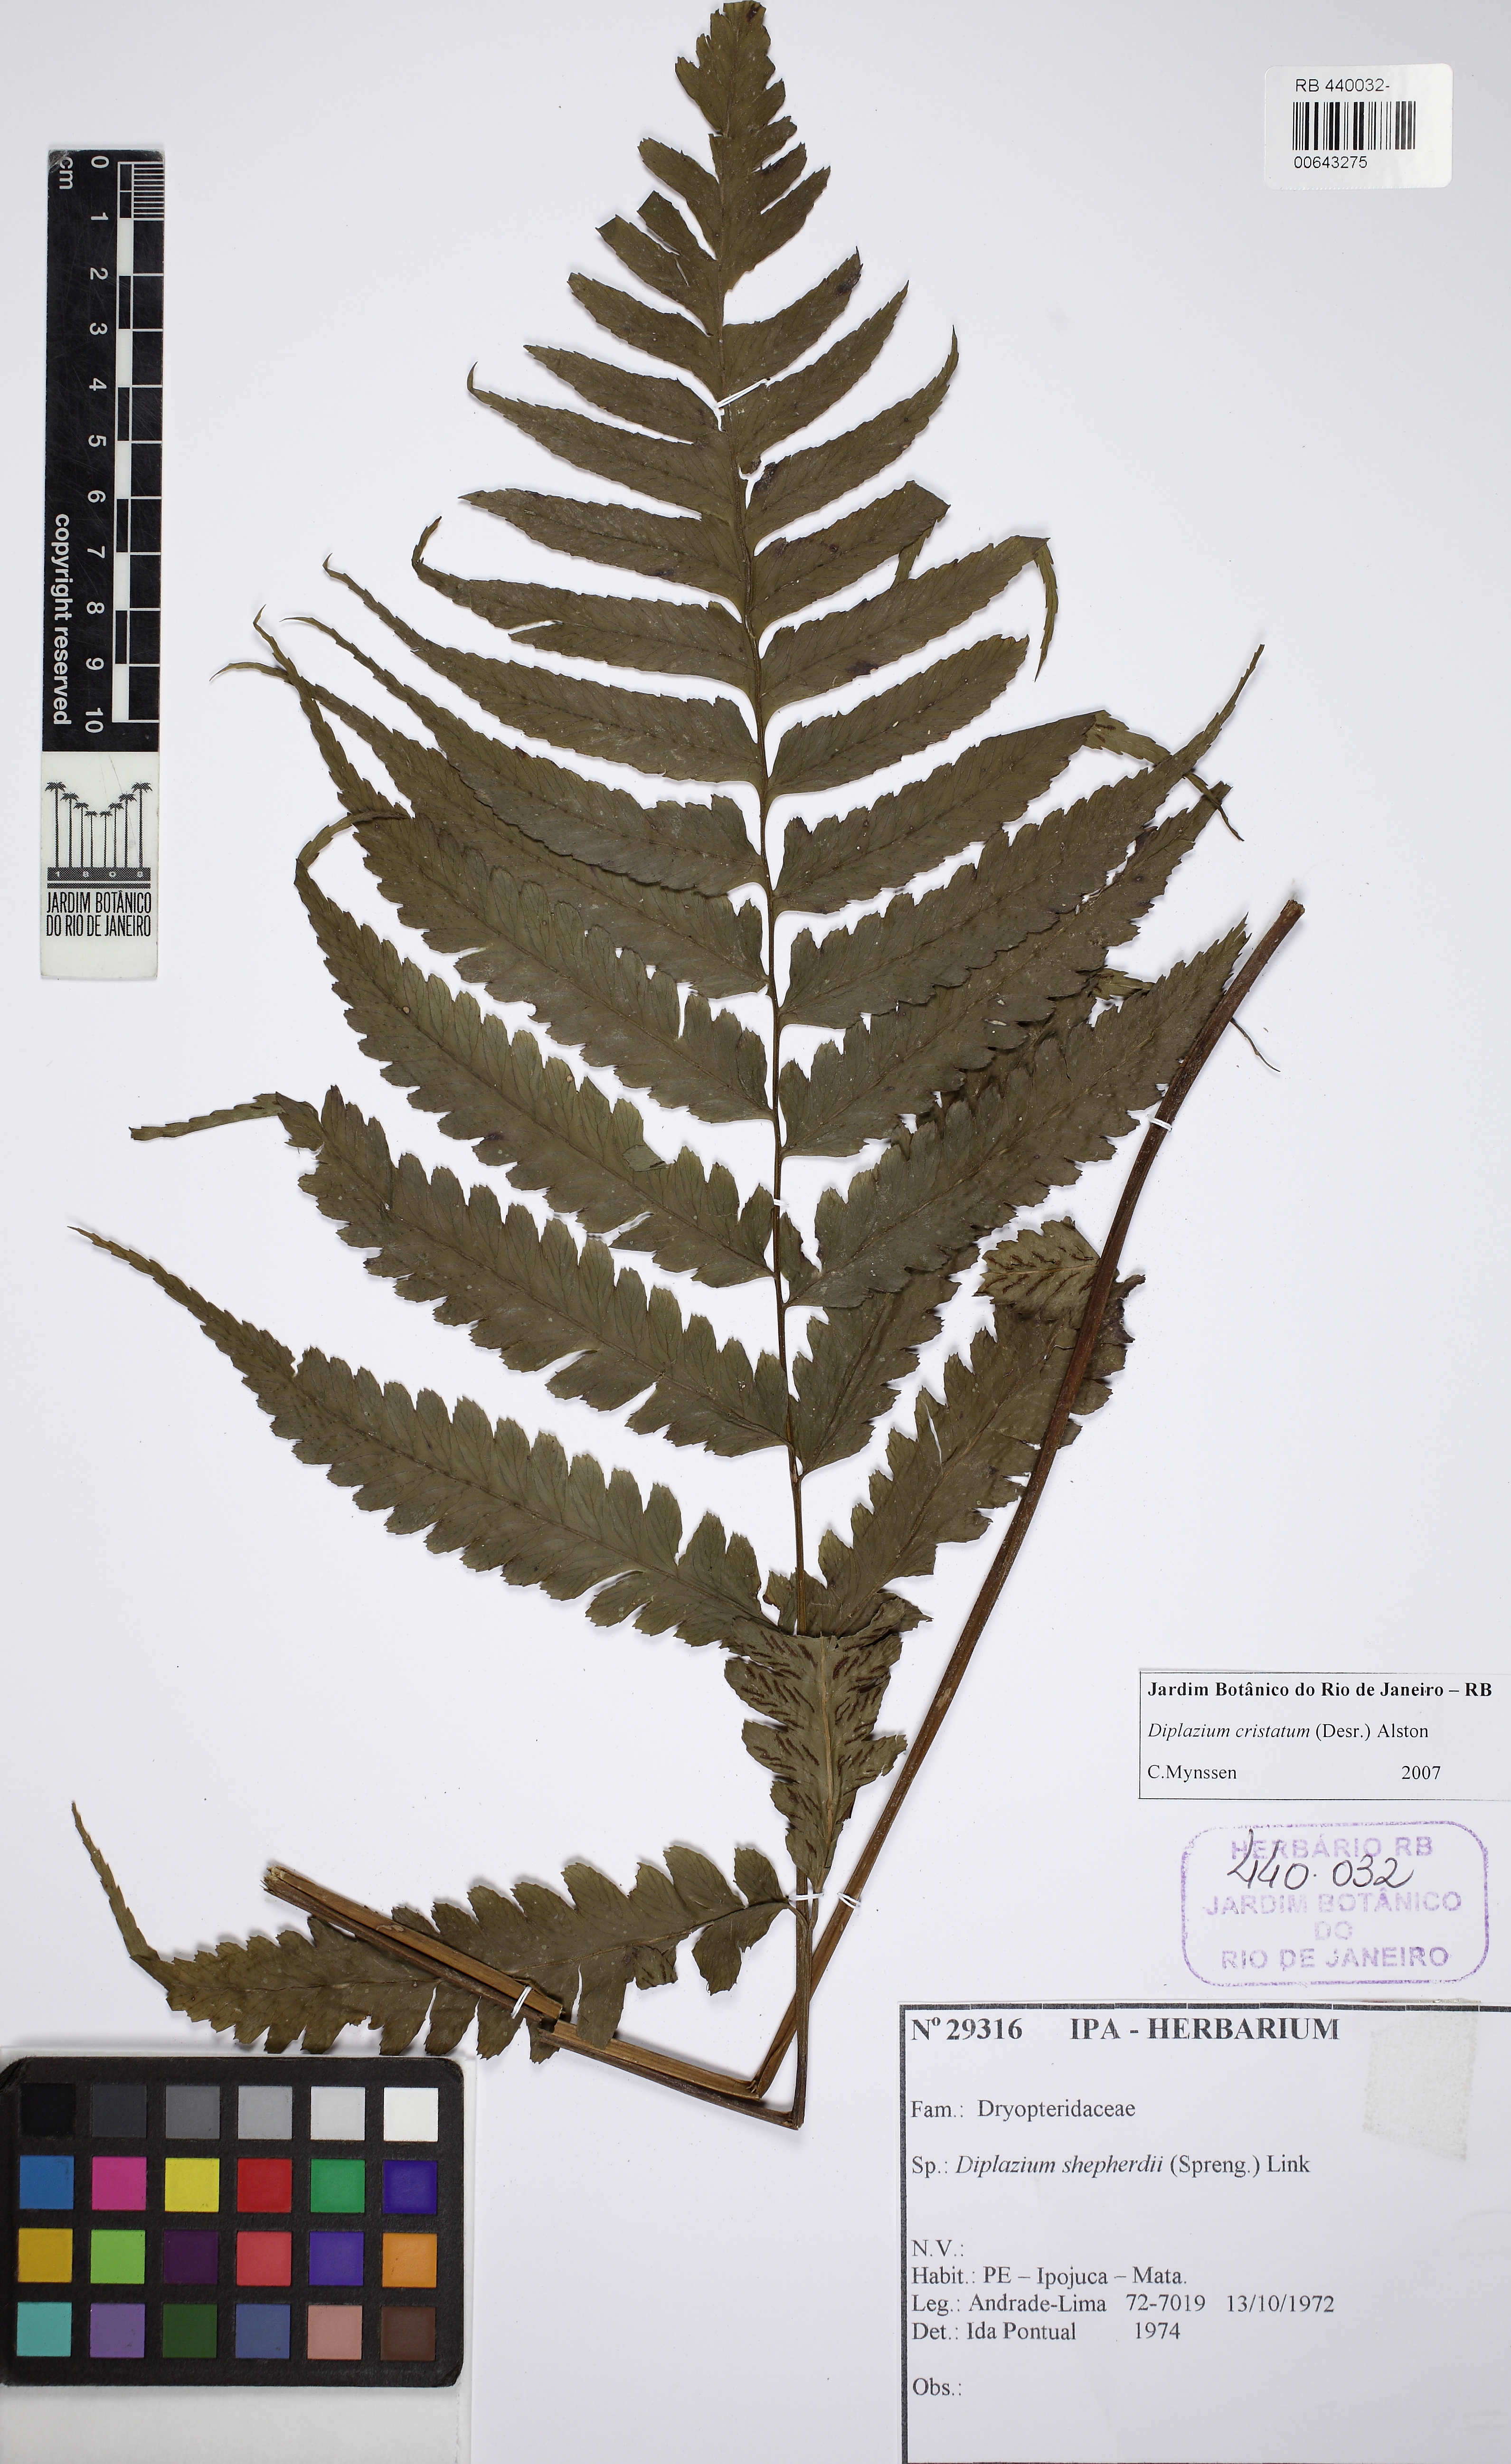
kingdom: Plantae
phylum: Tracheophyta
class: Polypodiopsida
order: Polypodiales
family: Athyriaceae
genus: Diplazium
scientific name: Diplazium cristatum
